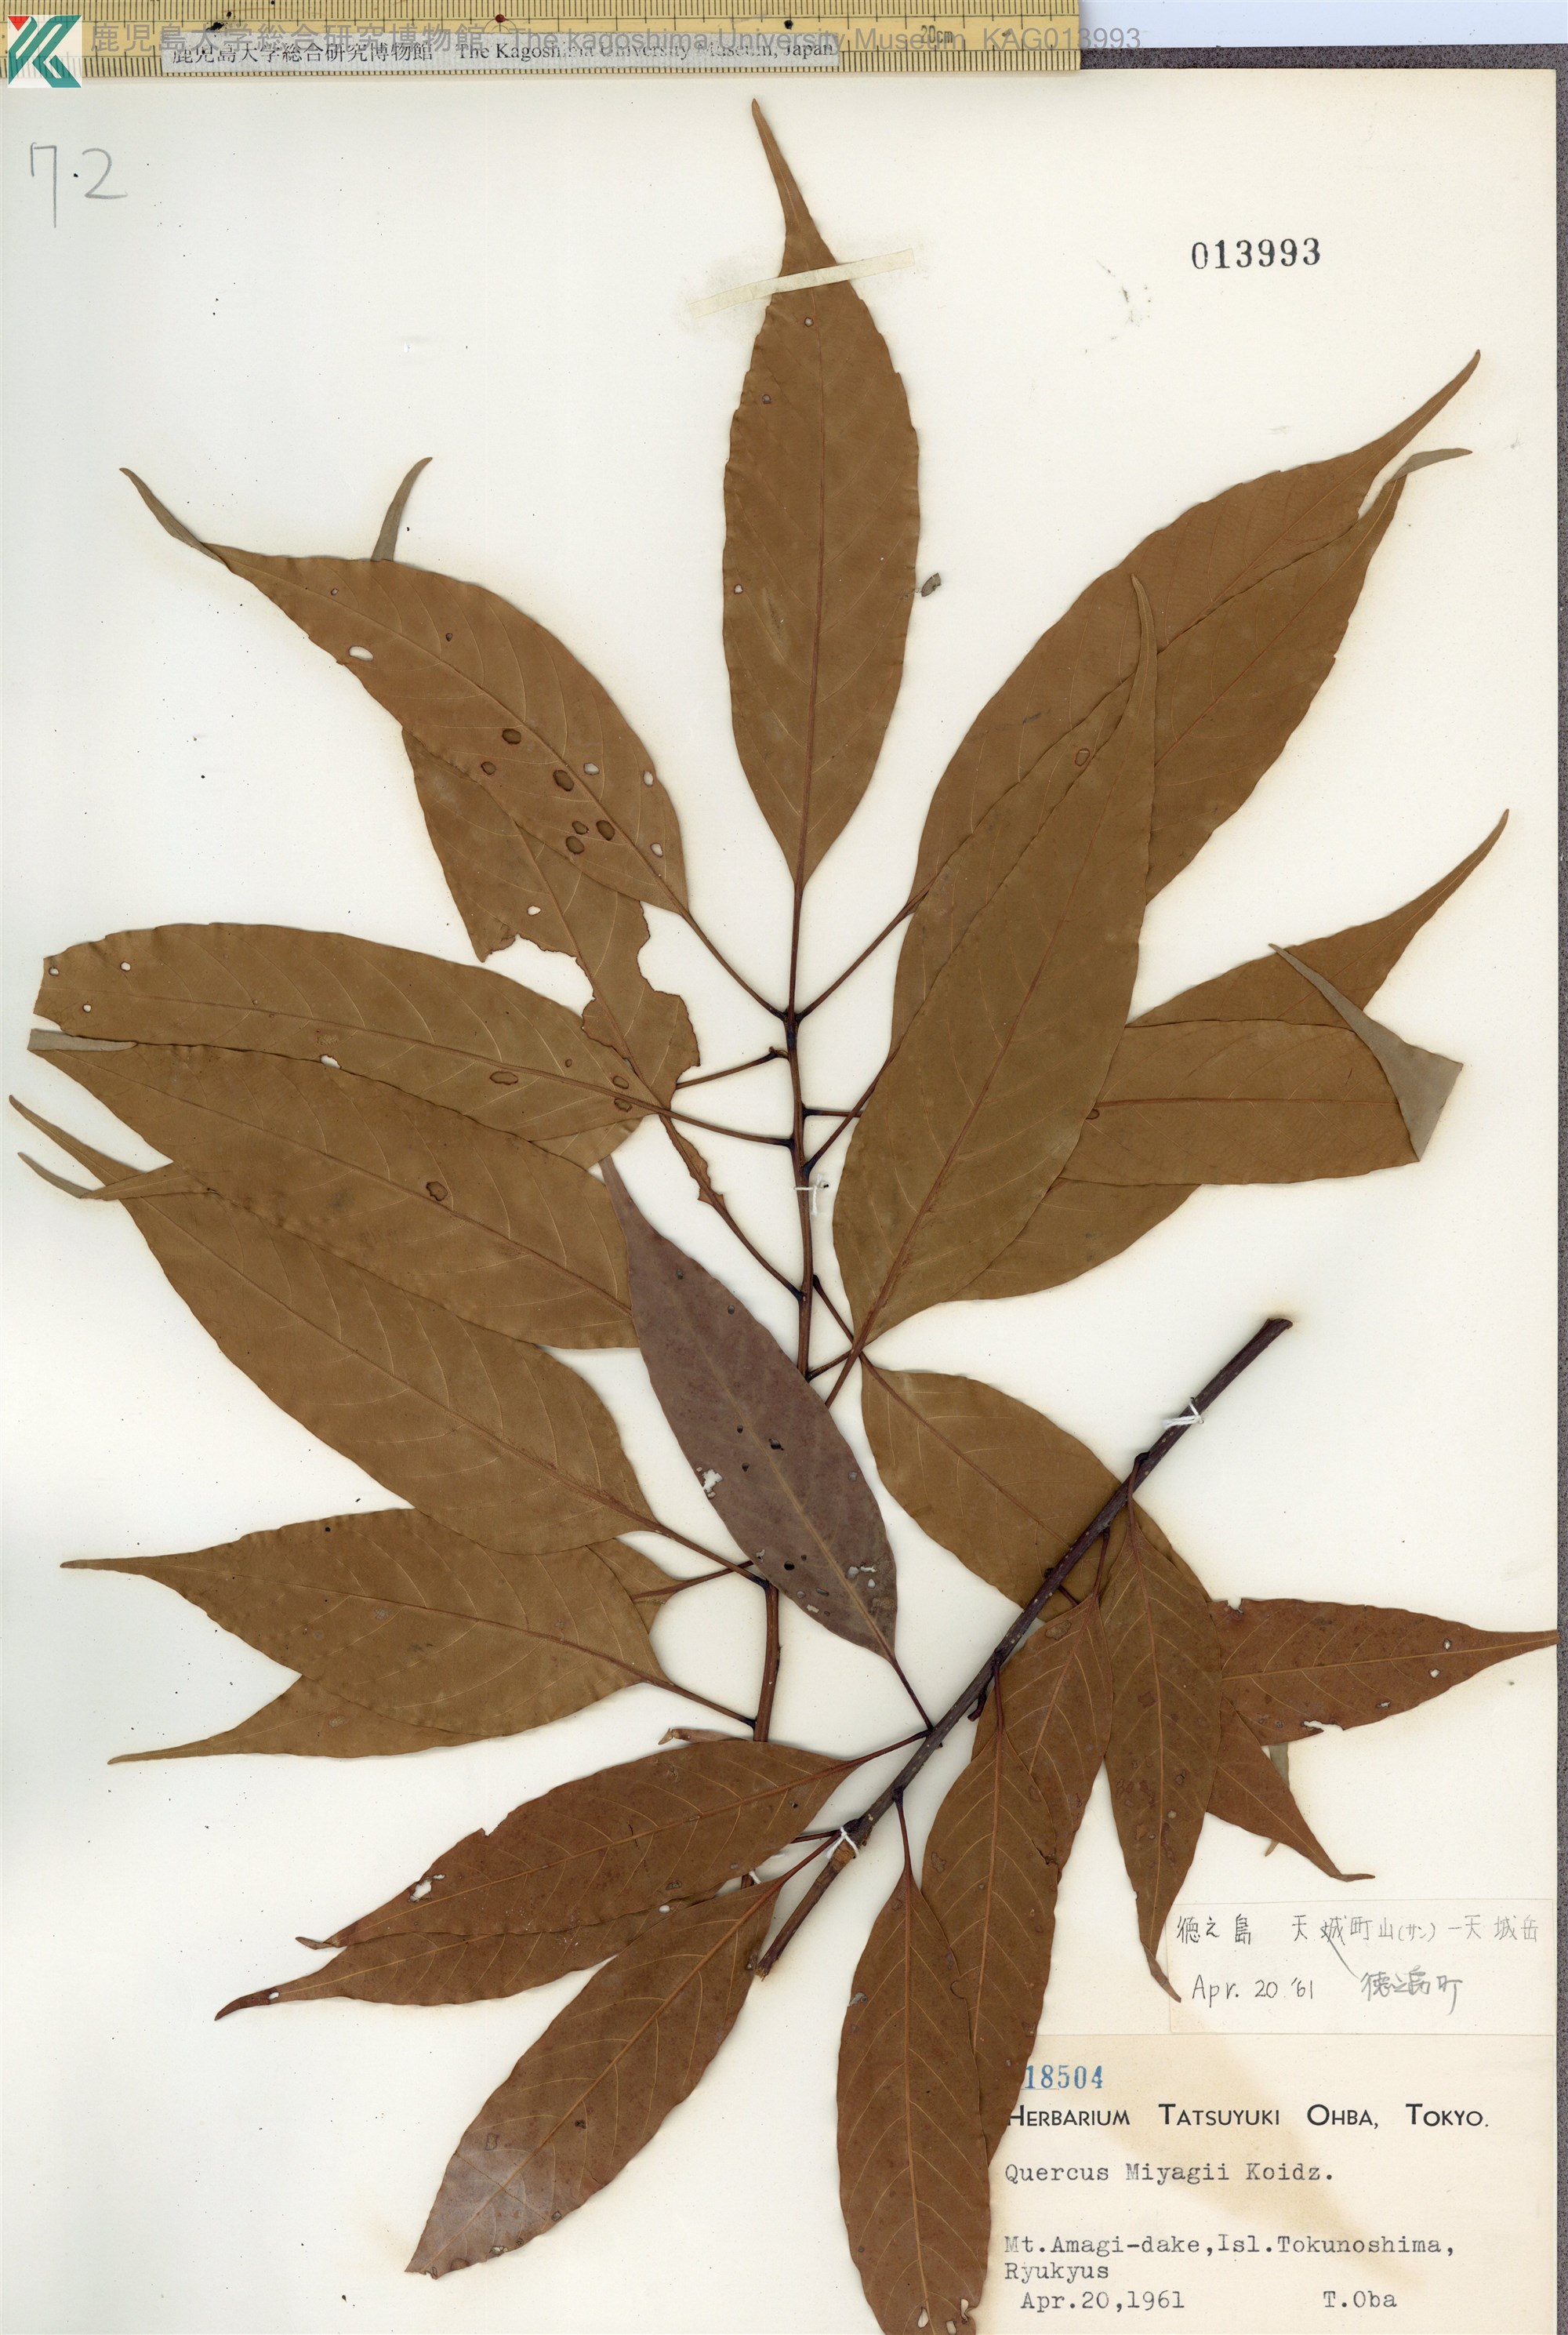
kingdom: Plantae
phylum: Tracheophyta
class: Magnoliopsida
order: Fagales
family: Fagaceae
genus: Quercus
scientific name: Quercus miyagii
